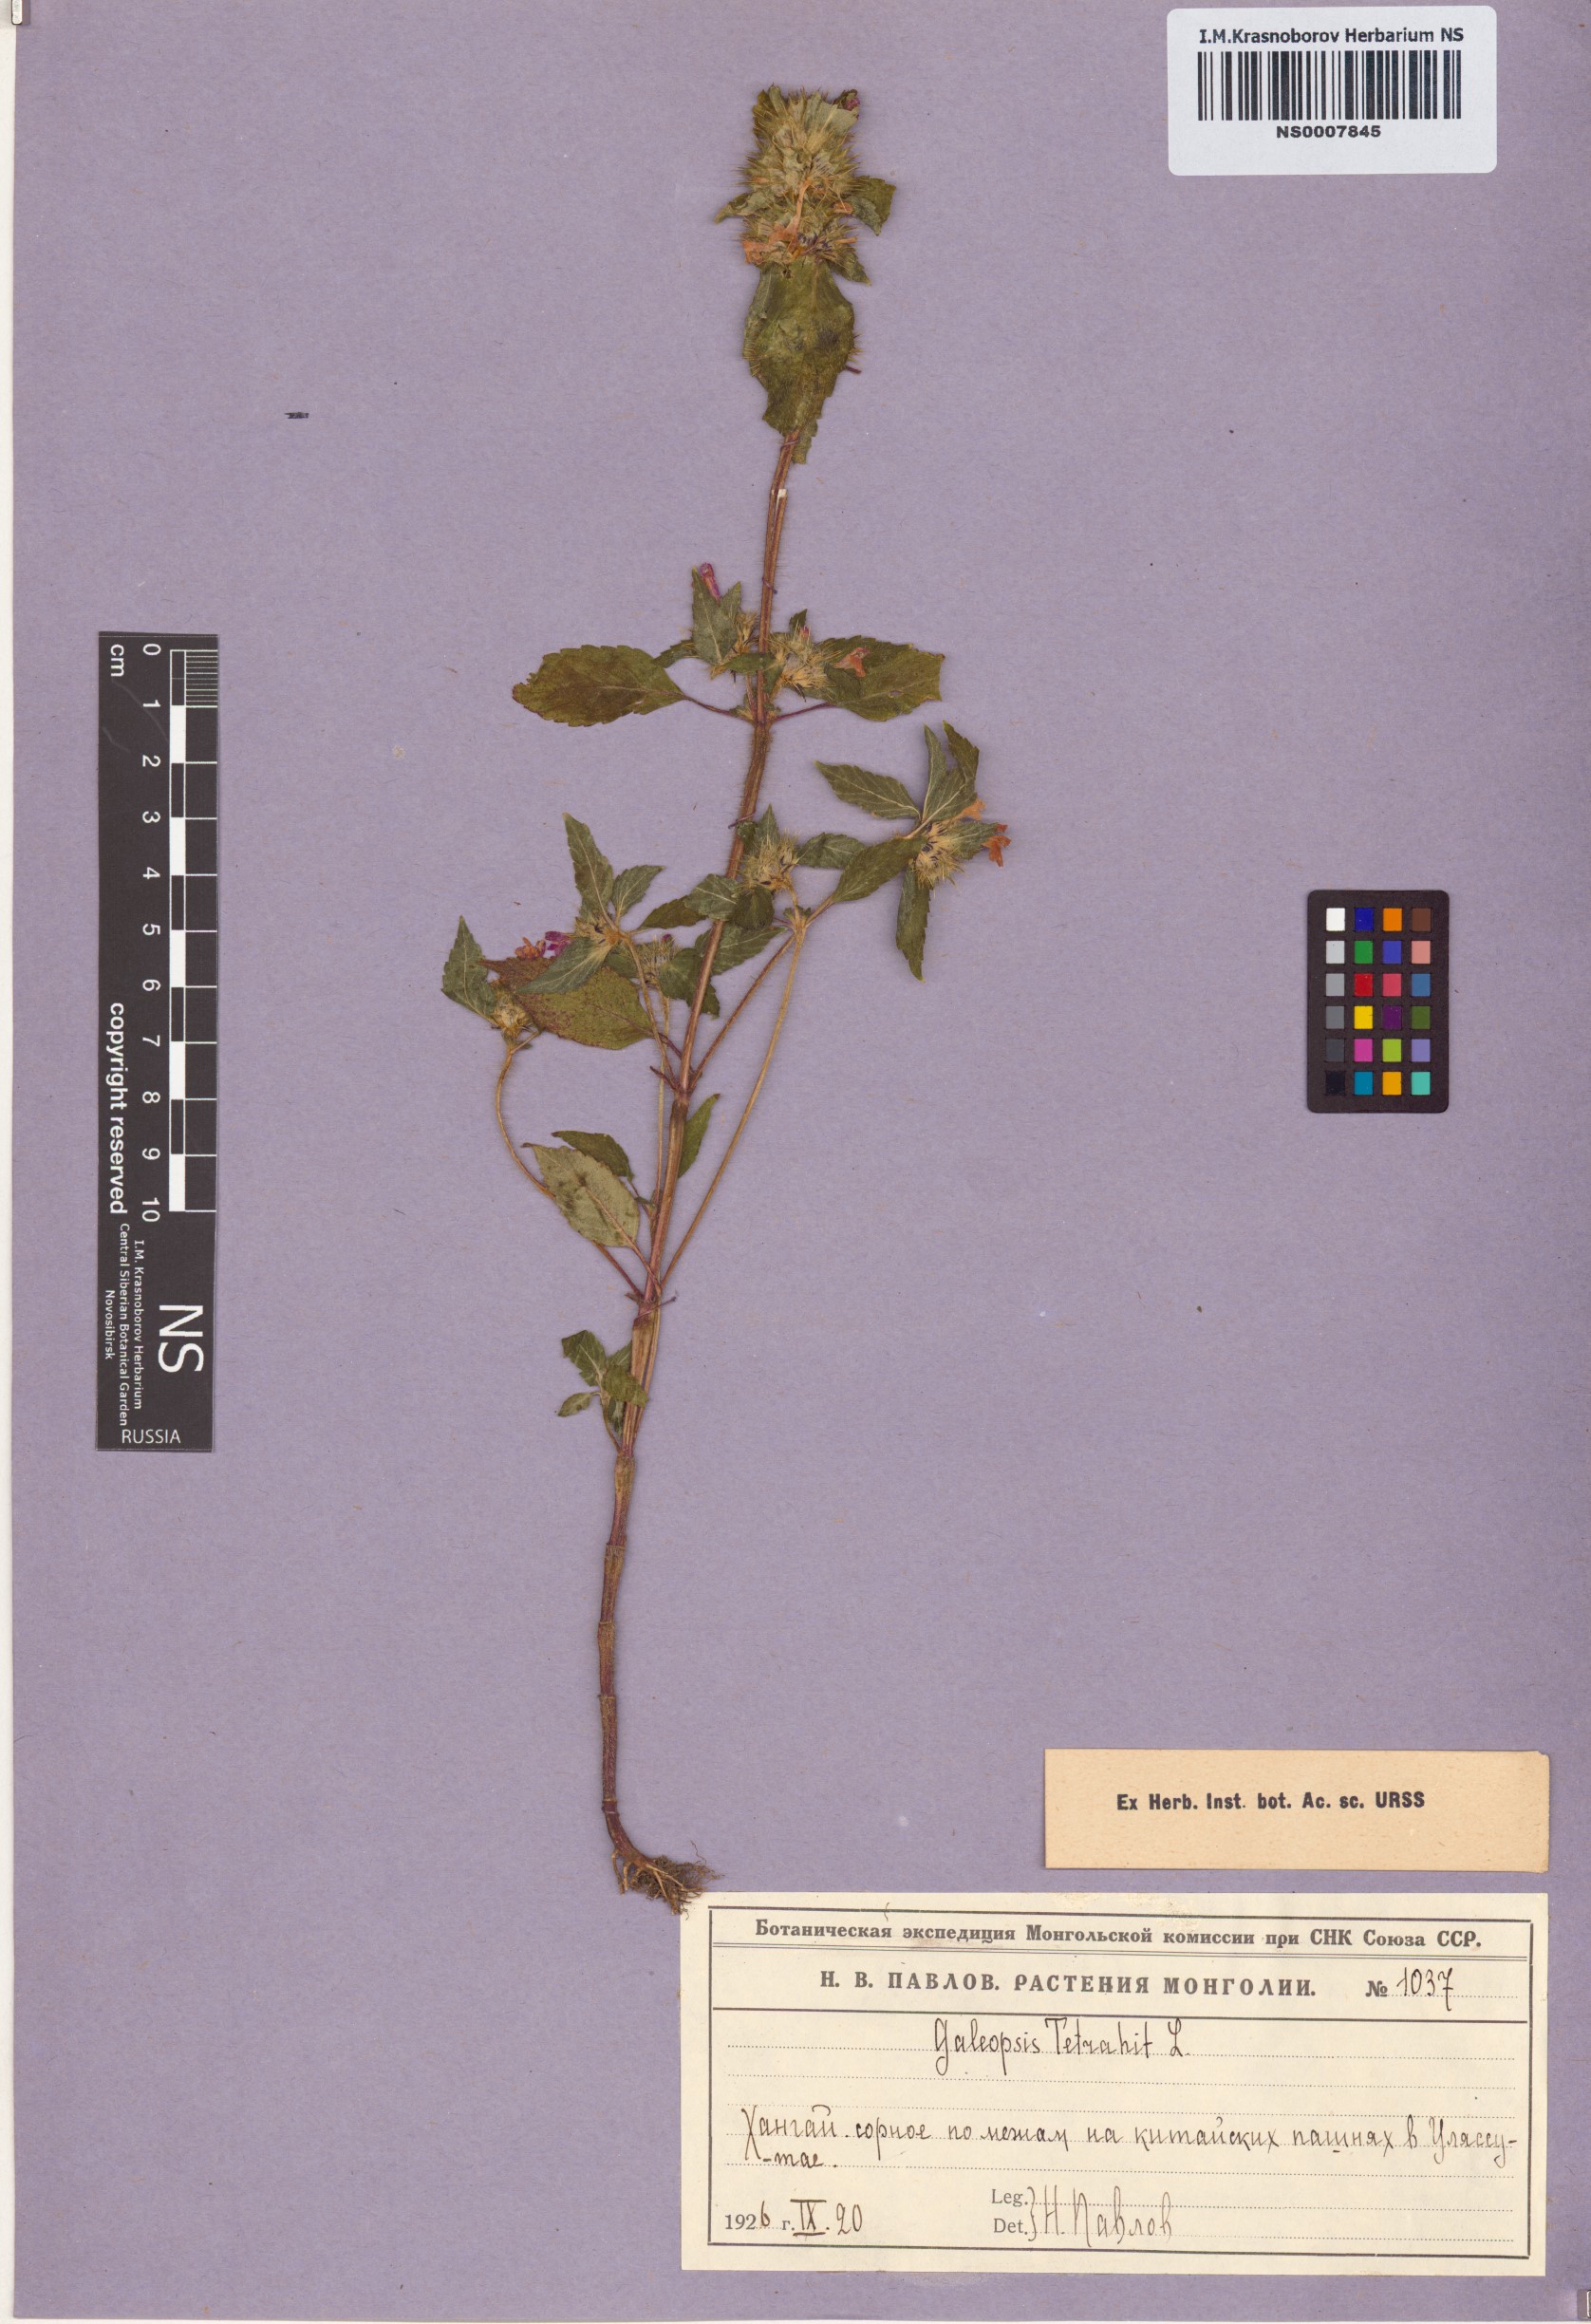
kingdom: Plantae
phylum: Tracheophyta
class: Magnoliopsida
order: Lamiales
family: Lamiaceae
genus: Galeopsis
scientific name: Galeopsis tetrahit
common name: Common hemp-nettle
